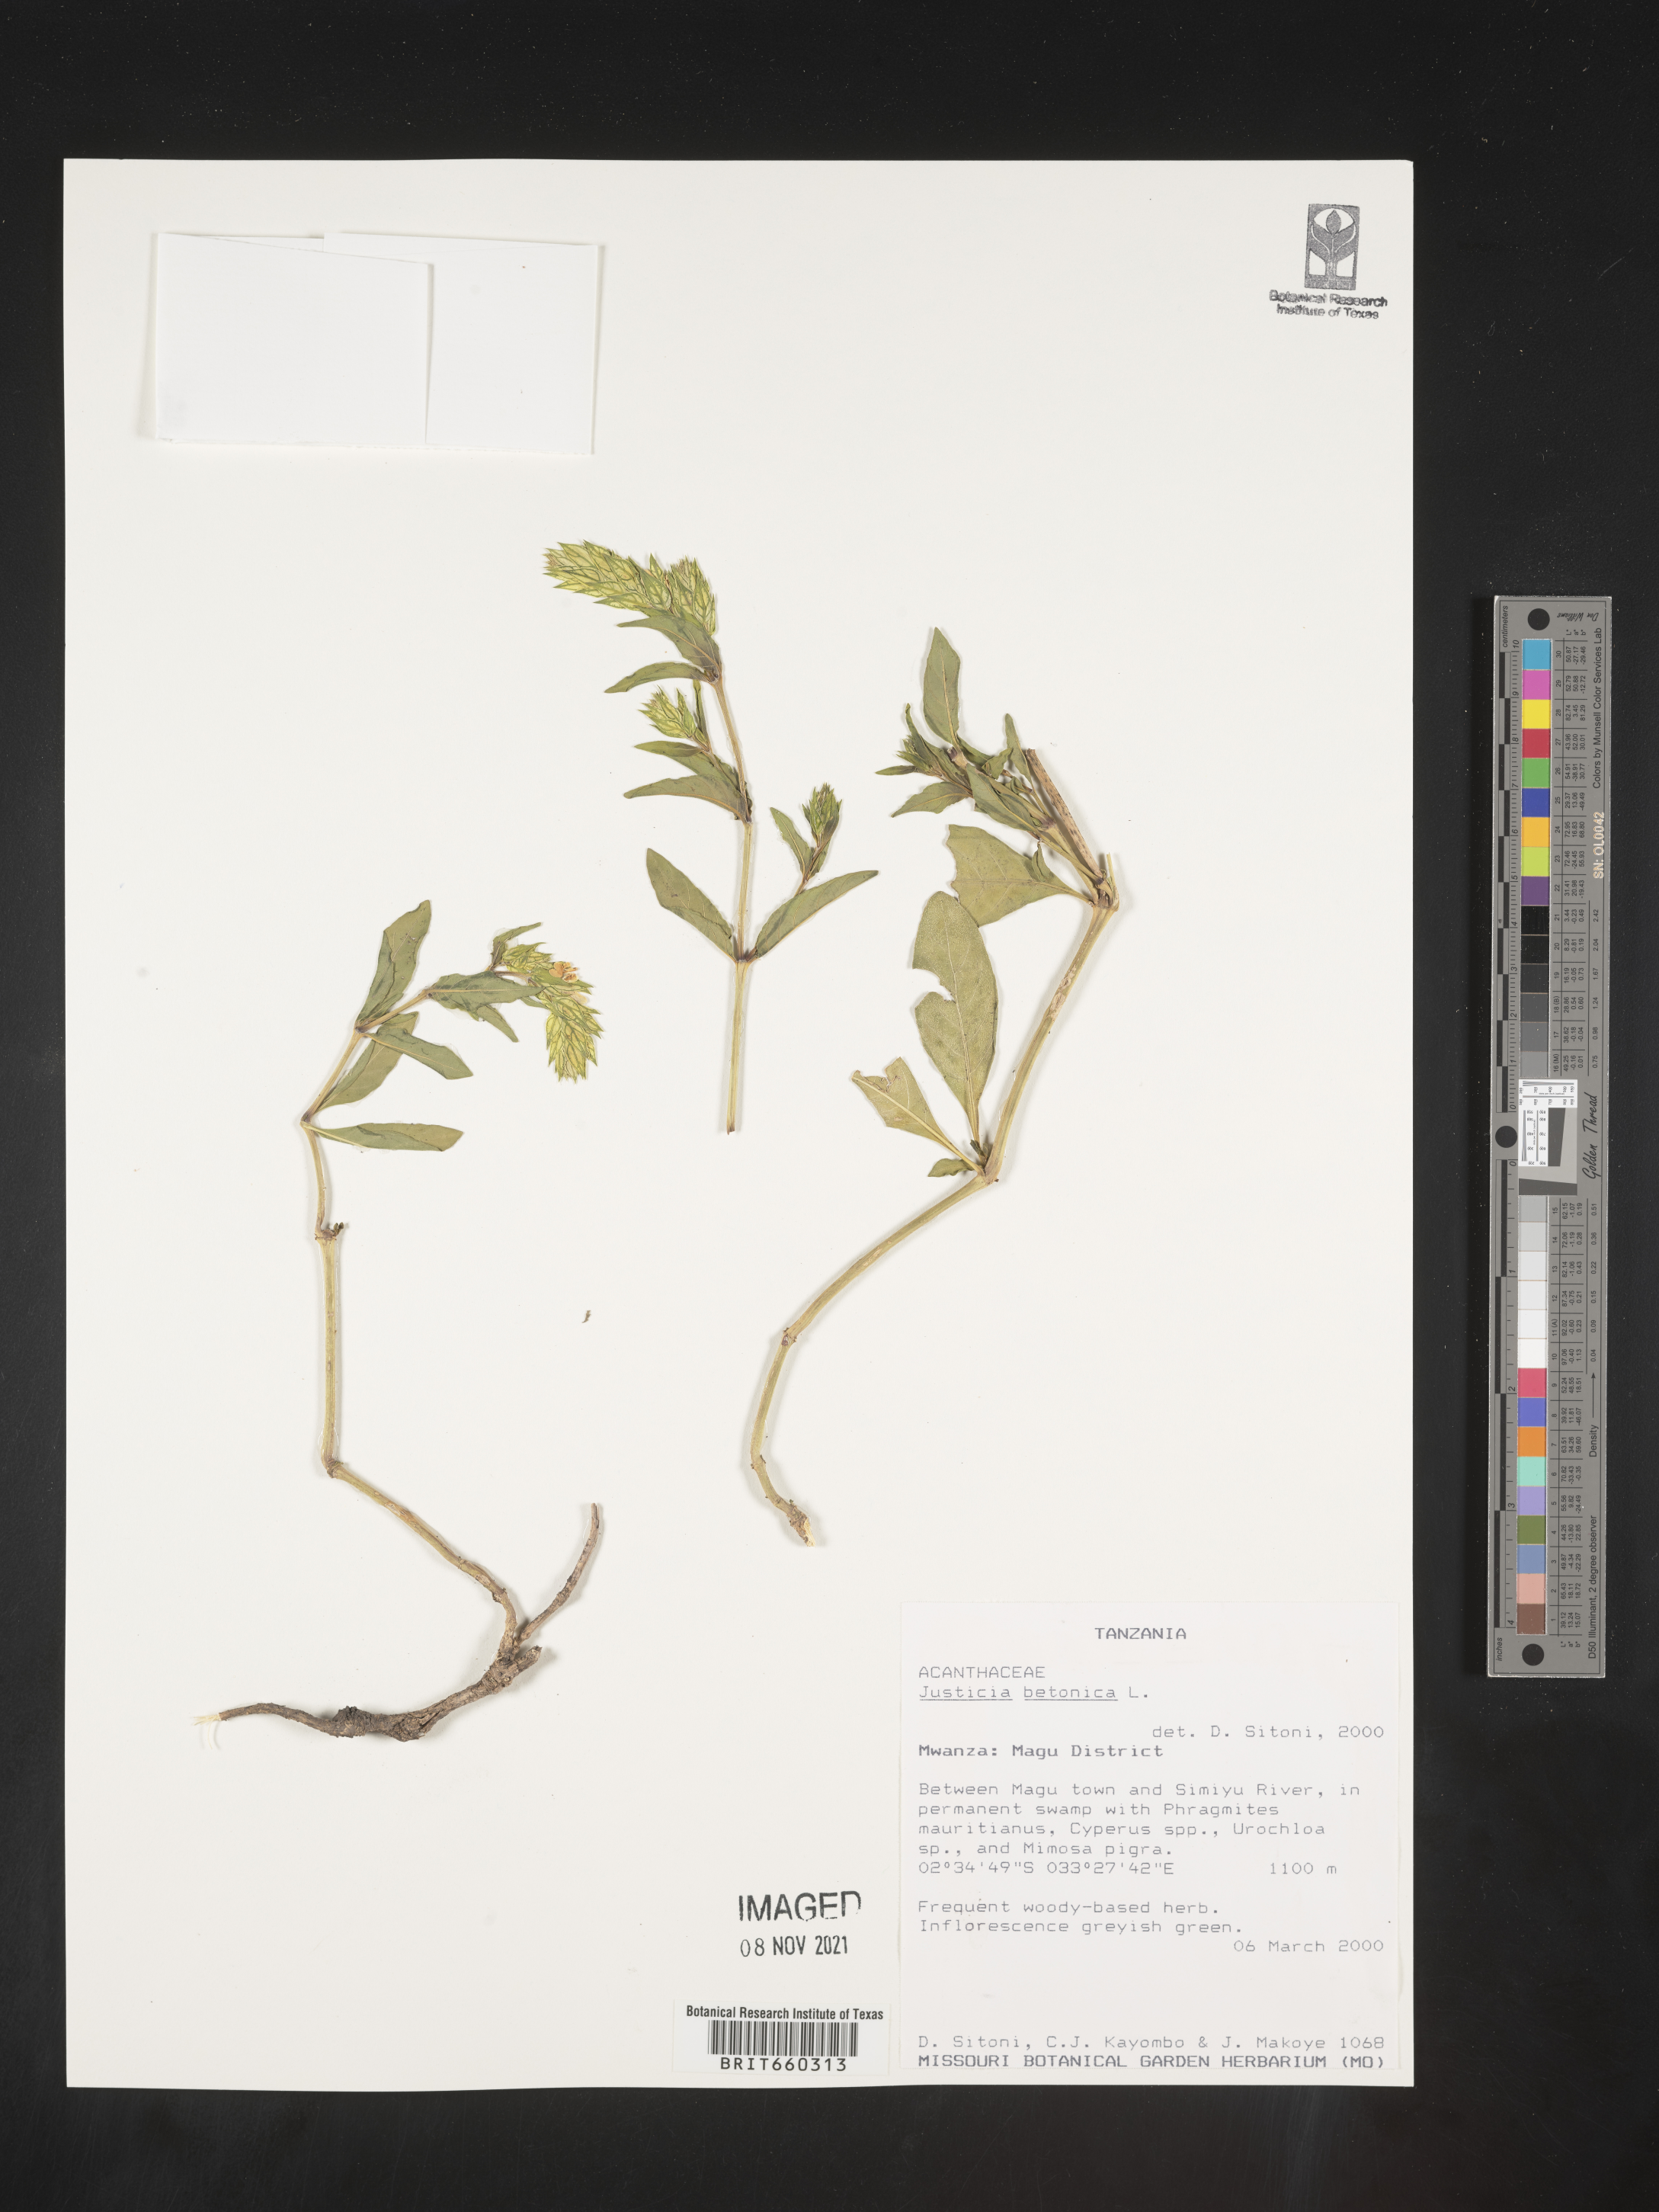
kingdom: Plantae
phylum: Tracheophyta
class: Magnoliopsida
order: Lamiales
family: Acanthaceae
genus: Justicia
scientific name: Justicia
